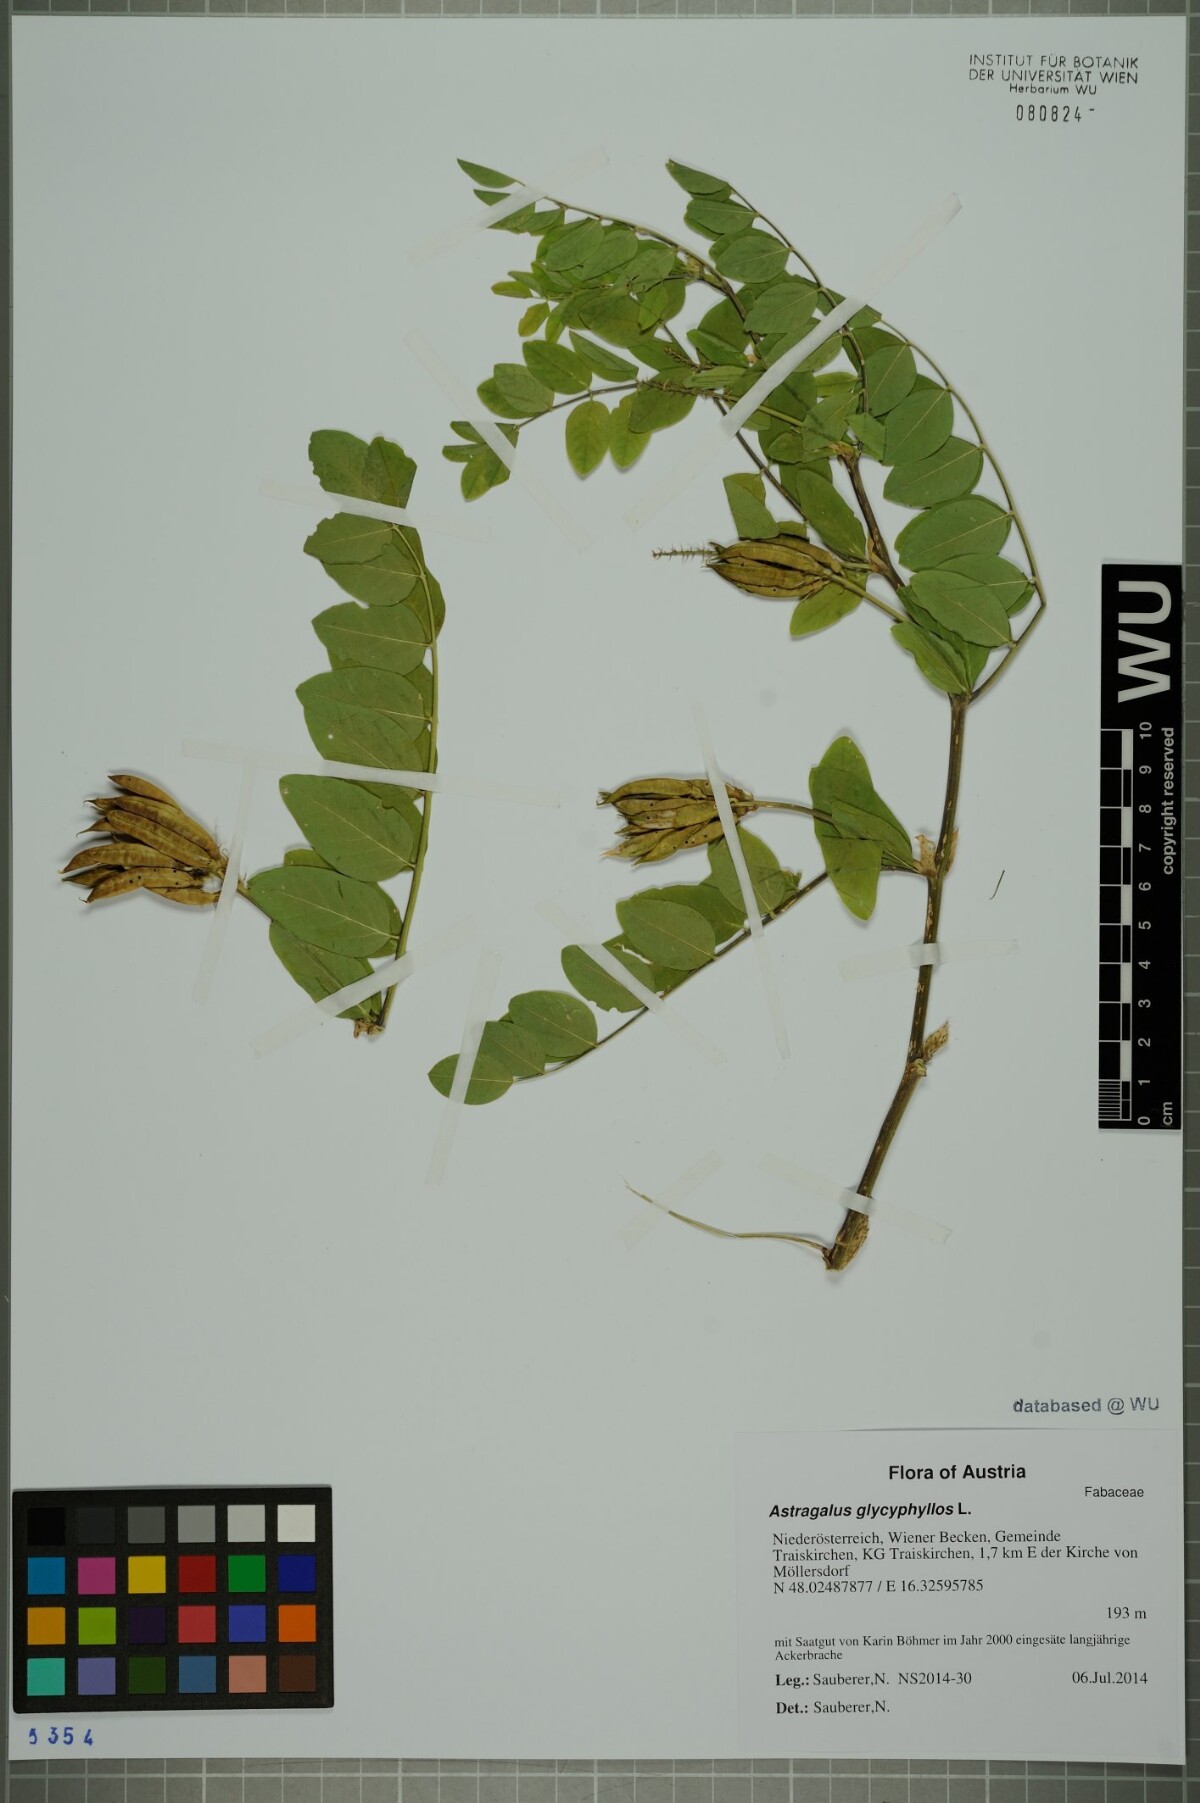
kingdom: Plantae
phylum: Tracheophyta
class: Magnoliopsida
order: Fabales
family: Fabaceae
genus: Astragalus
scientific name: Astragalus glycyphyllos
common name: Wild liquorice
